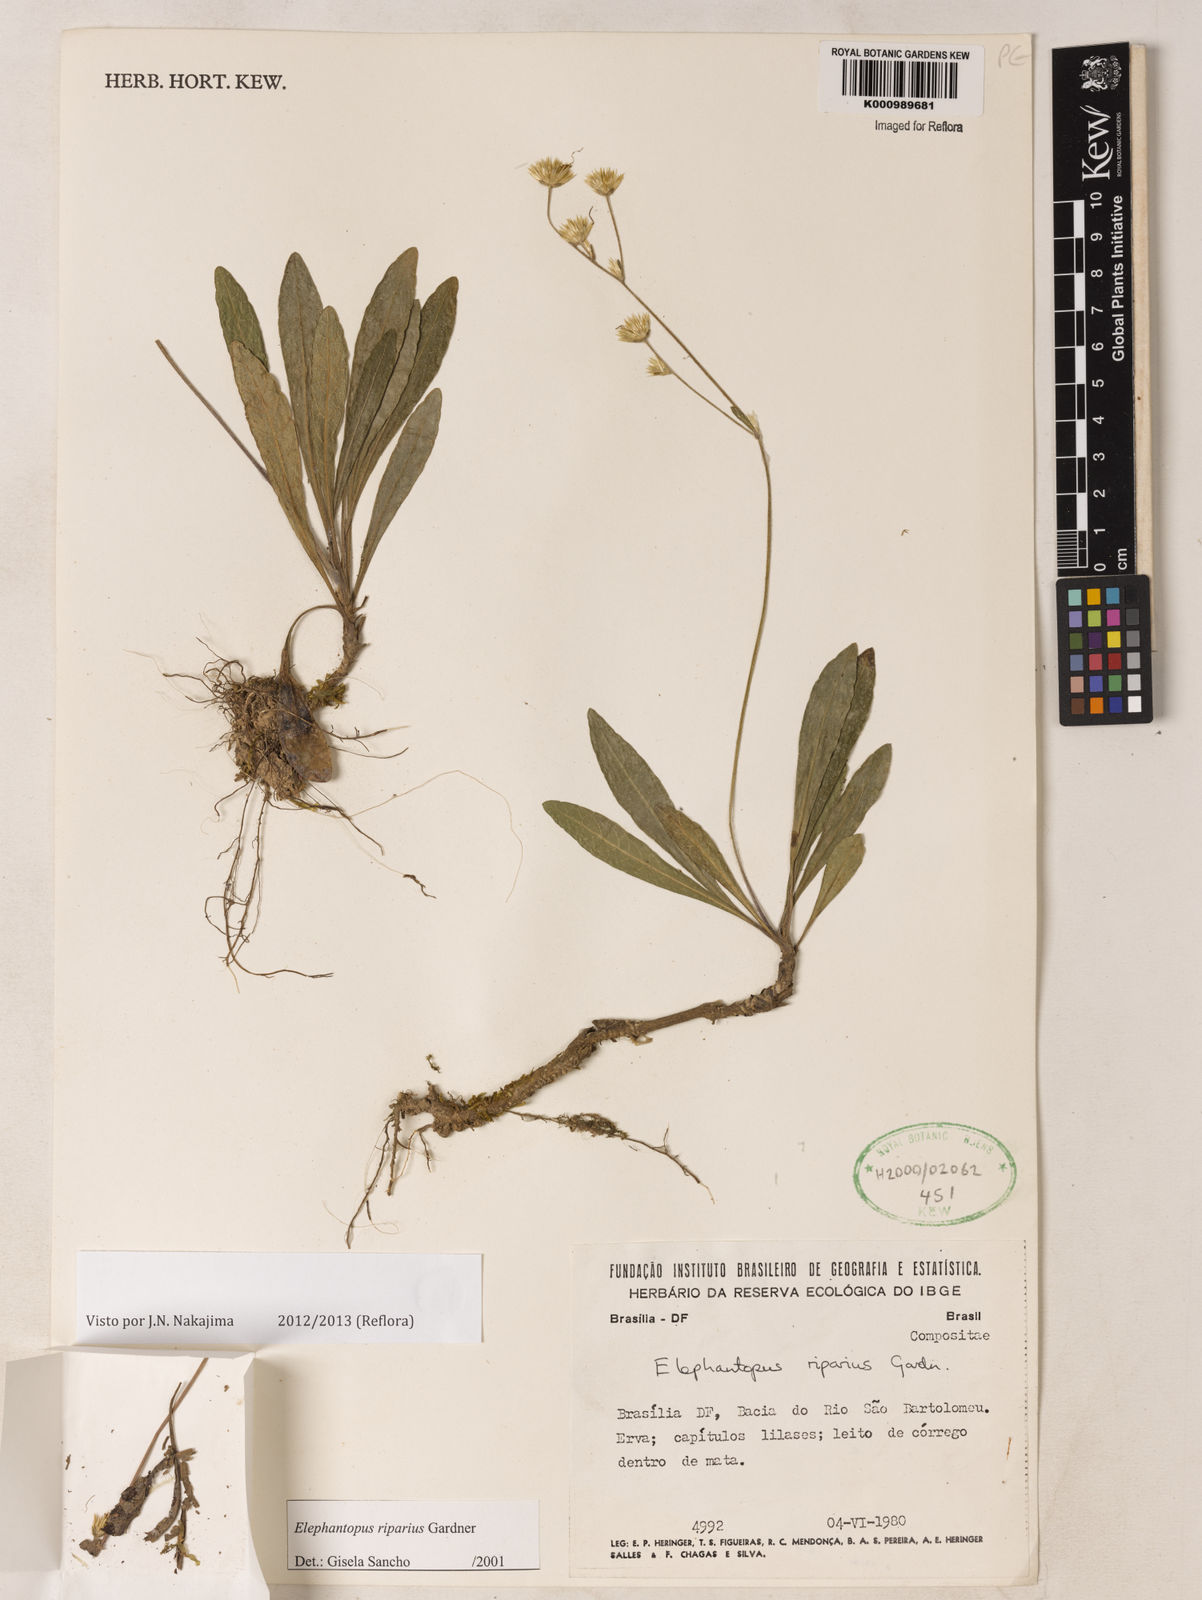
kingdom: Plantae
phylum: Tracheophyta
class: Magnoliopsida
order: Asterales
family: Asteraceae
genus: Elephantopus
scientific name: Elephantopus riparius
